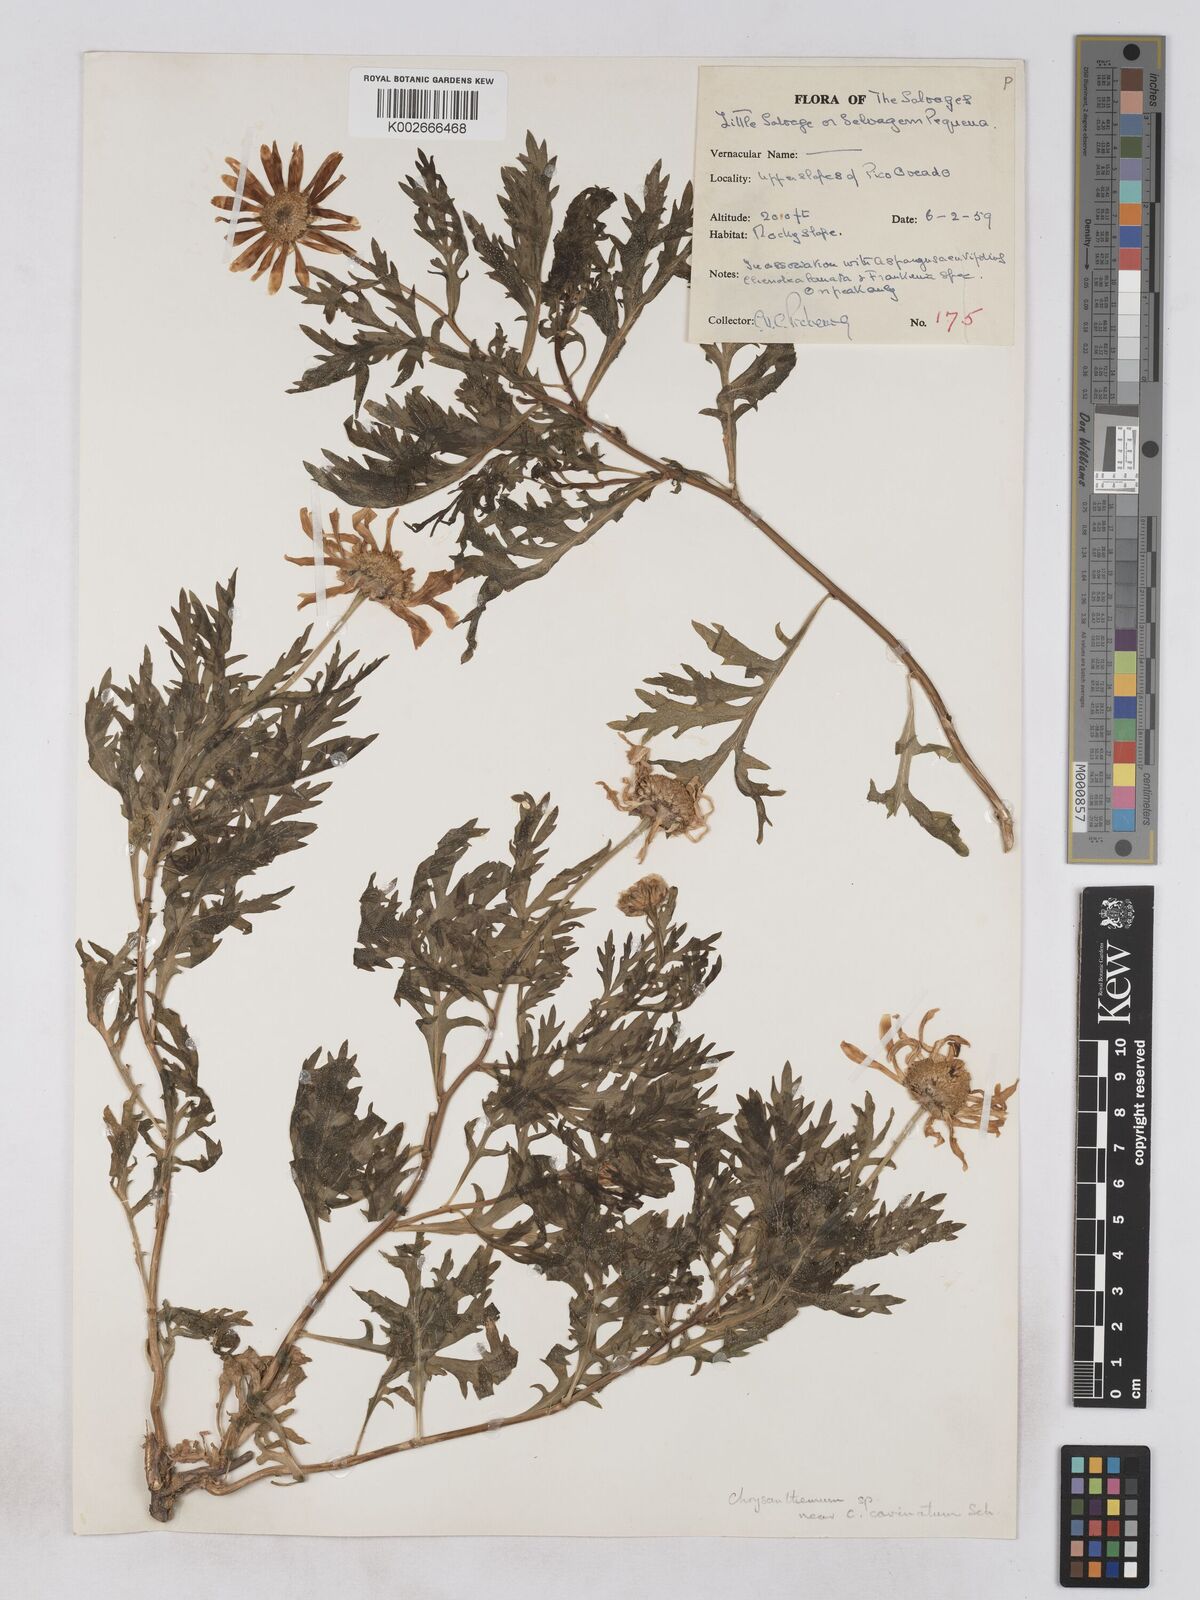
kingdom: Plantae
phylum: Tracheophyta
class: Magnoliopsida
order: Asterales
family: Asteraceae
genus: Argyranthemum
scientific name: Argyranthemum thalassophilum
